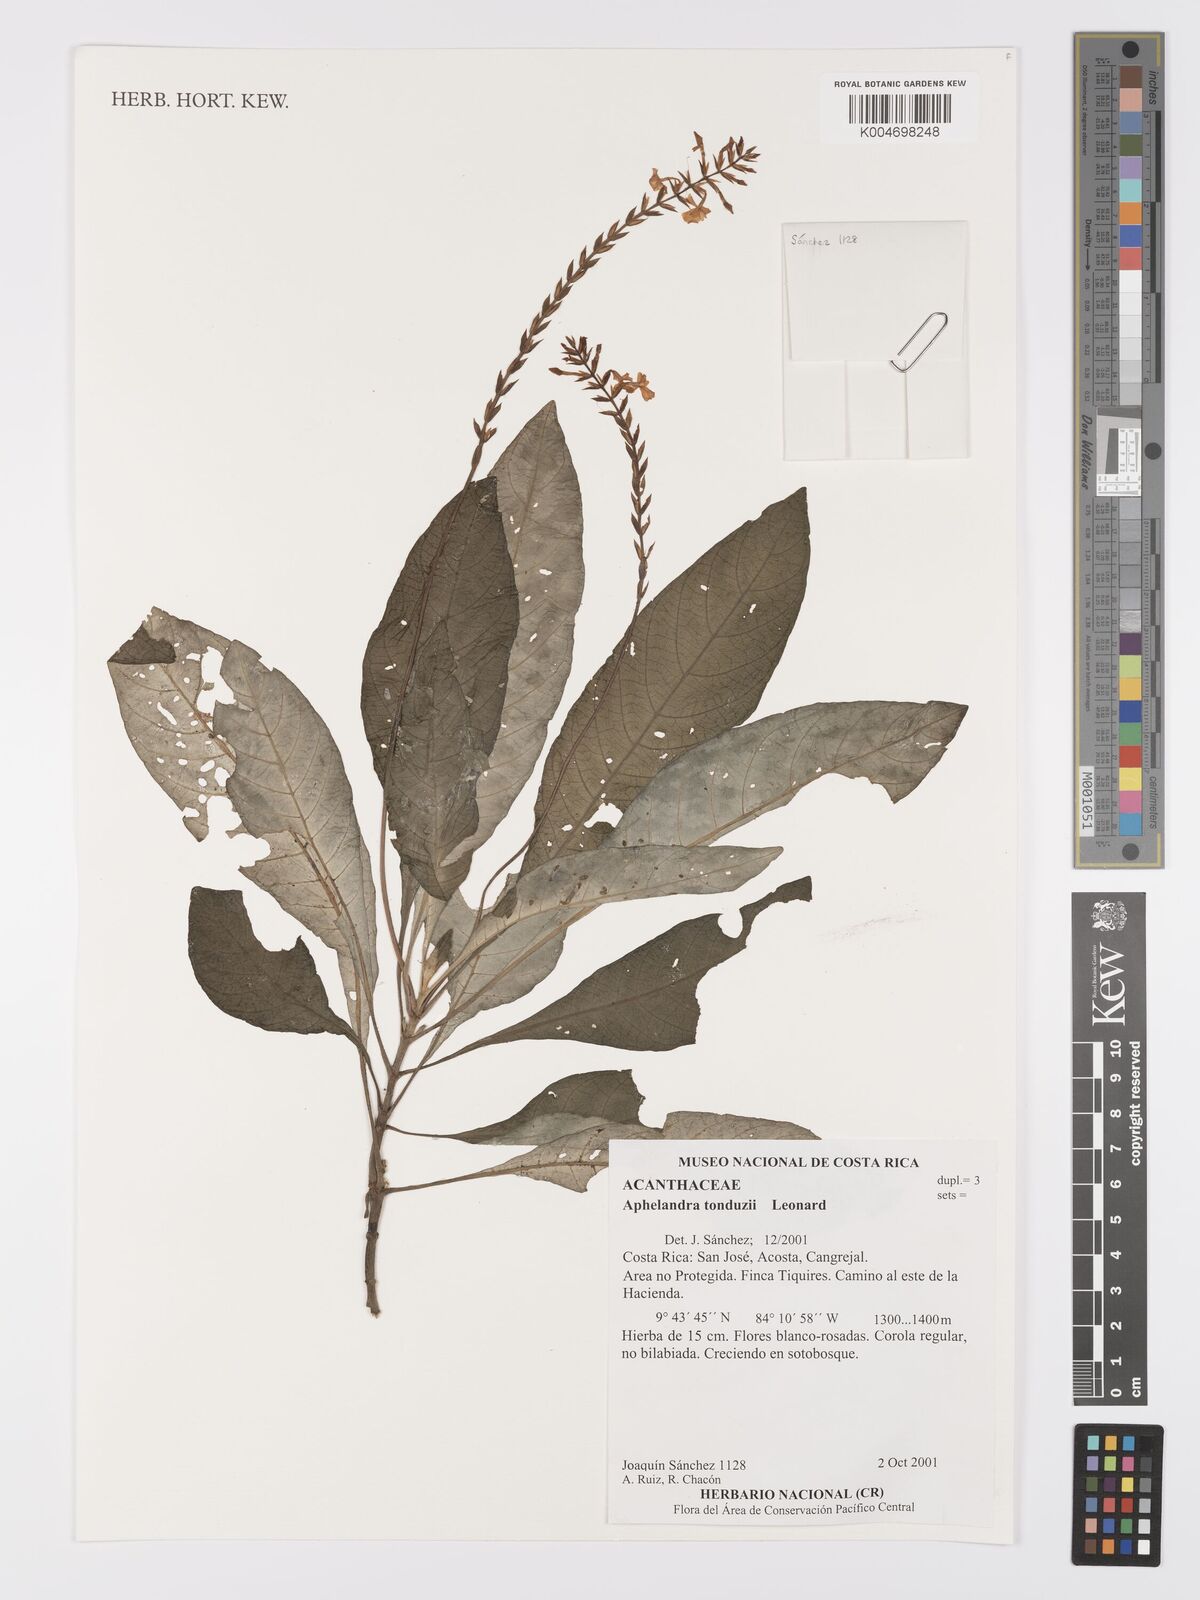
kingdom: Plantae
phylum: Tracheophyta
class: Magnoliopsida
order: Lamiales
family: Acanthaceae
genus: Aphelandra
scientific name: Aphelandra tonduzii
